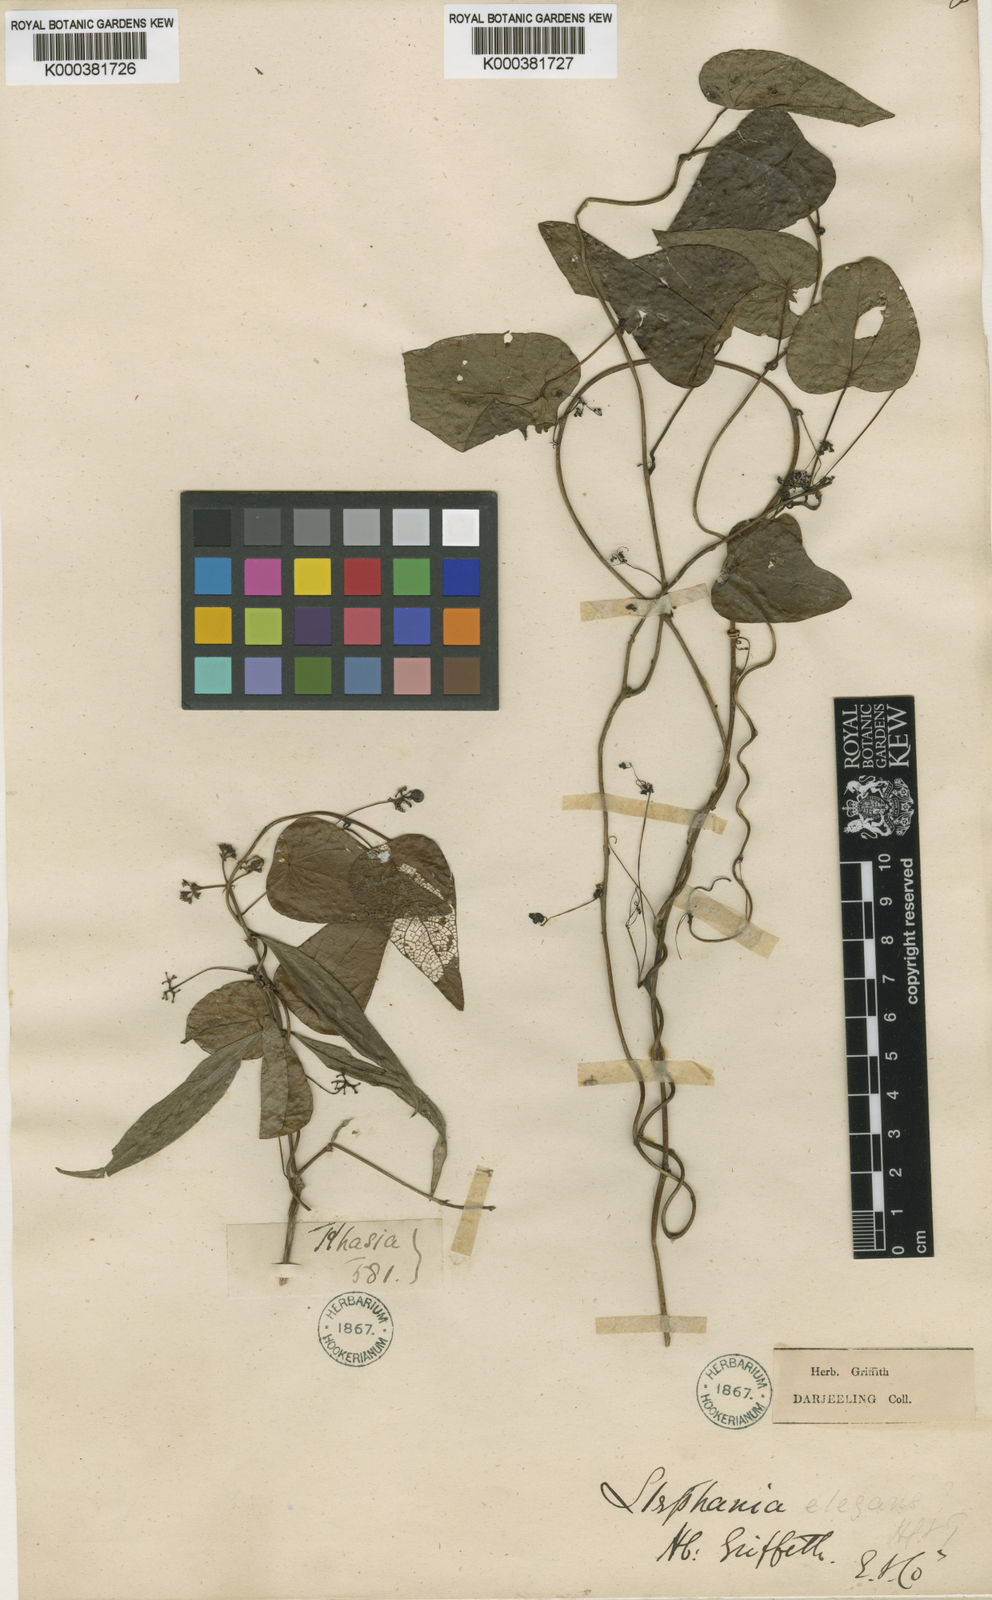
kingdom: Plantae
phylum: Tracheophyta
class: Magnoliopsida
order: Ranunculales
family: Menispermaceae
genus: Stephania
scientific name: Stephania elegans
